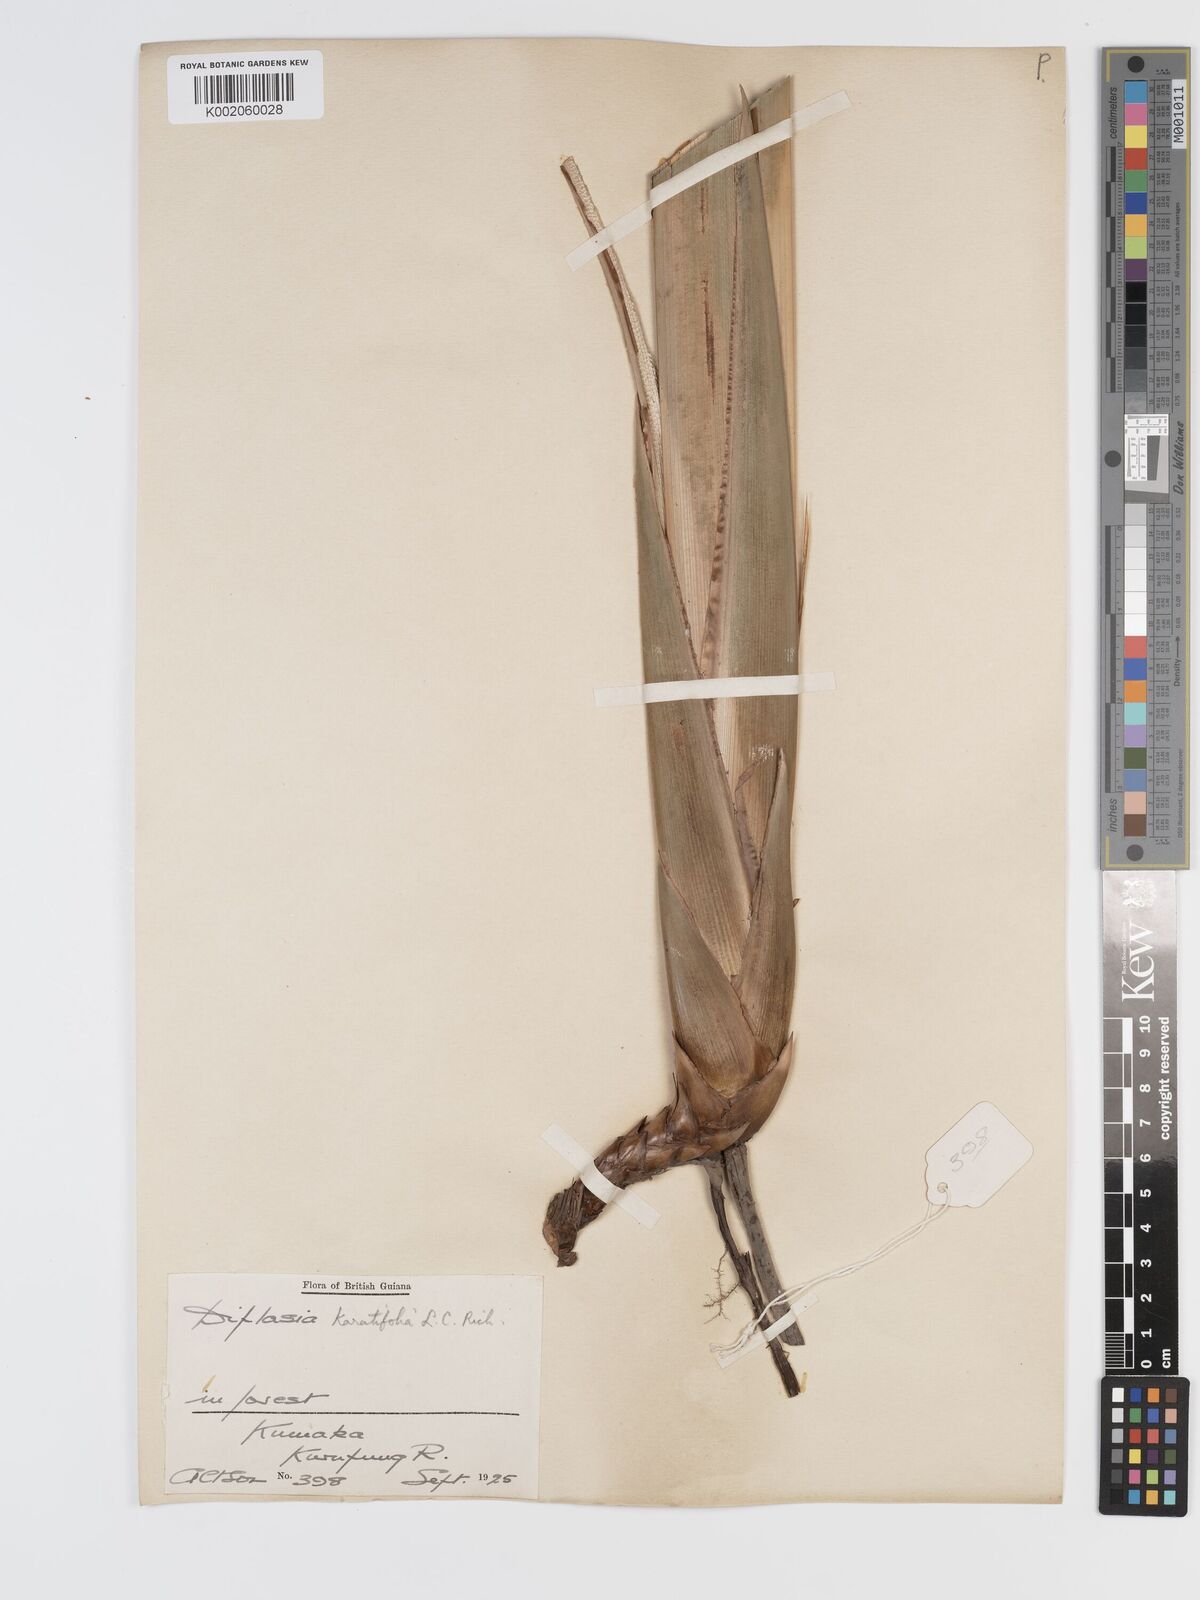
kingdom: Plantae
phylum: Tracheophyta
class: Liliopsida
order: Poales
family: Cyperaceae
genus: Diplasia
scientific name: Diplasia karatifolia
